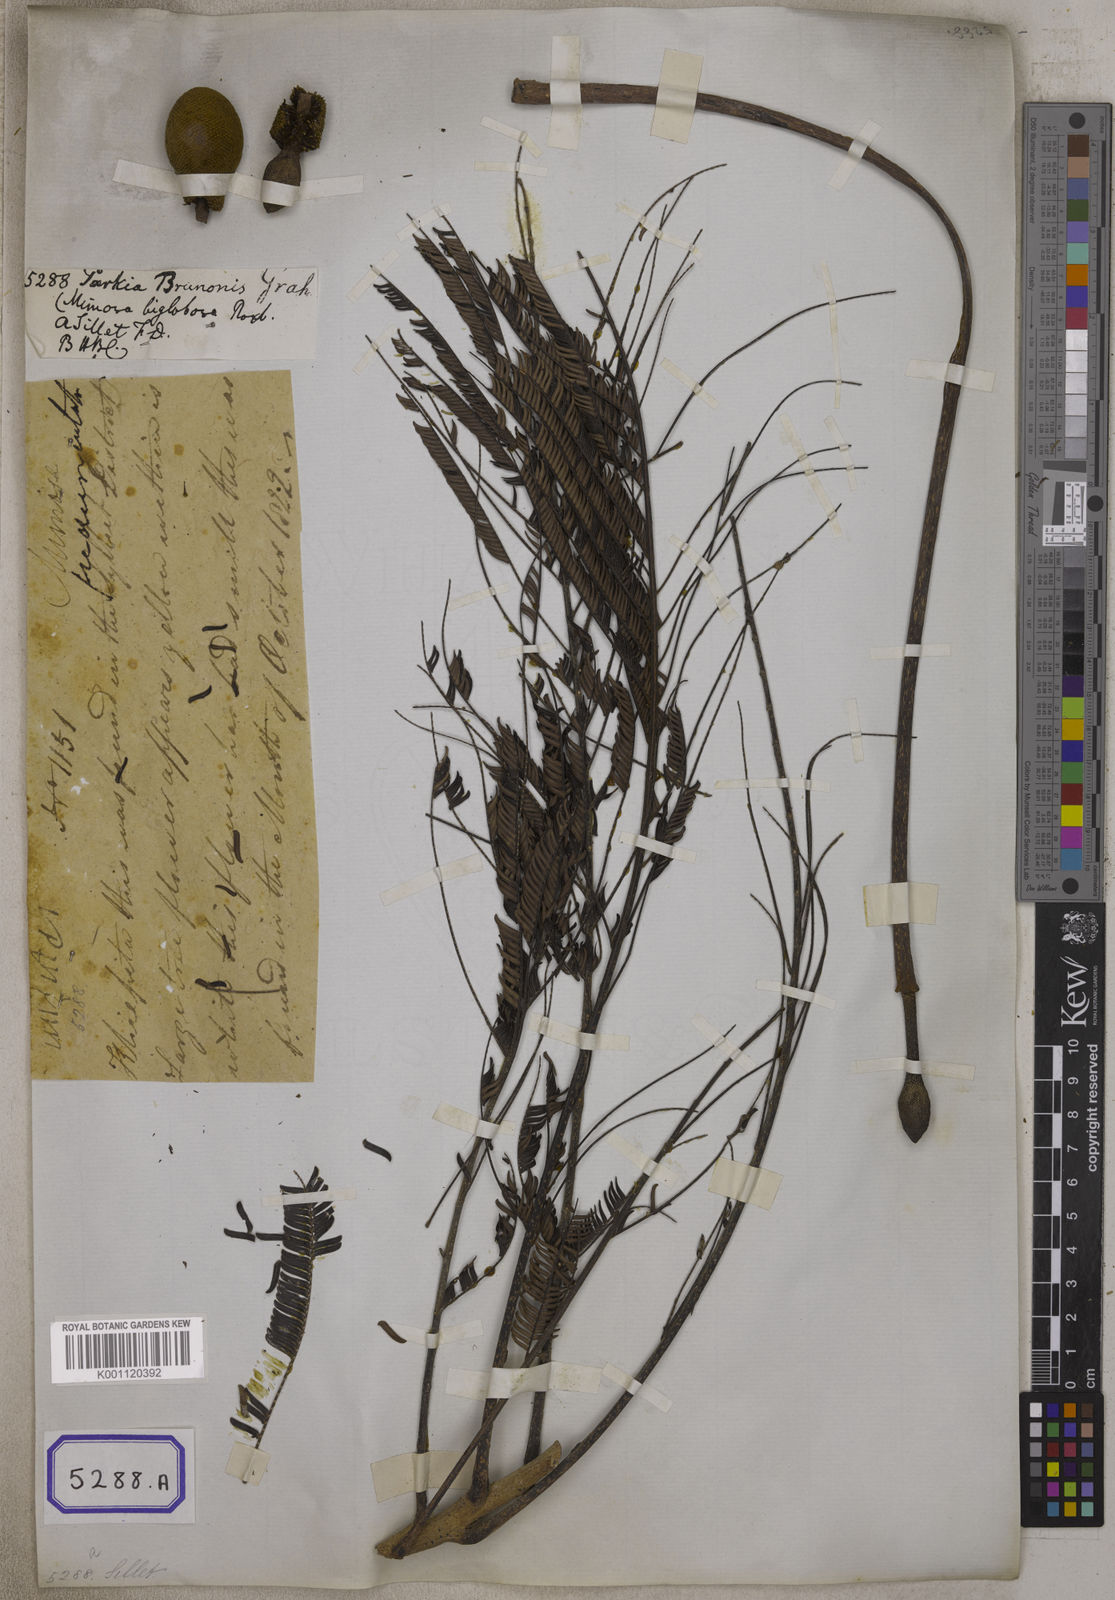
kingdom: Plantae
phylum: Tracheophyta
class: Magnoliopsida
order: Fabales
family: Fabaceae
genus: Parkia
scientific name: Parkia timoriana
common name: Legume
